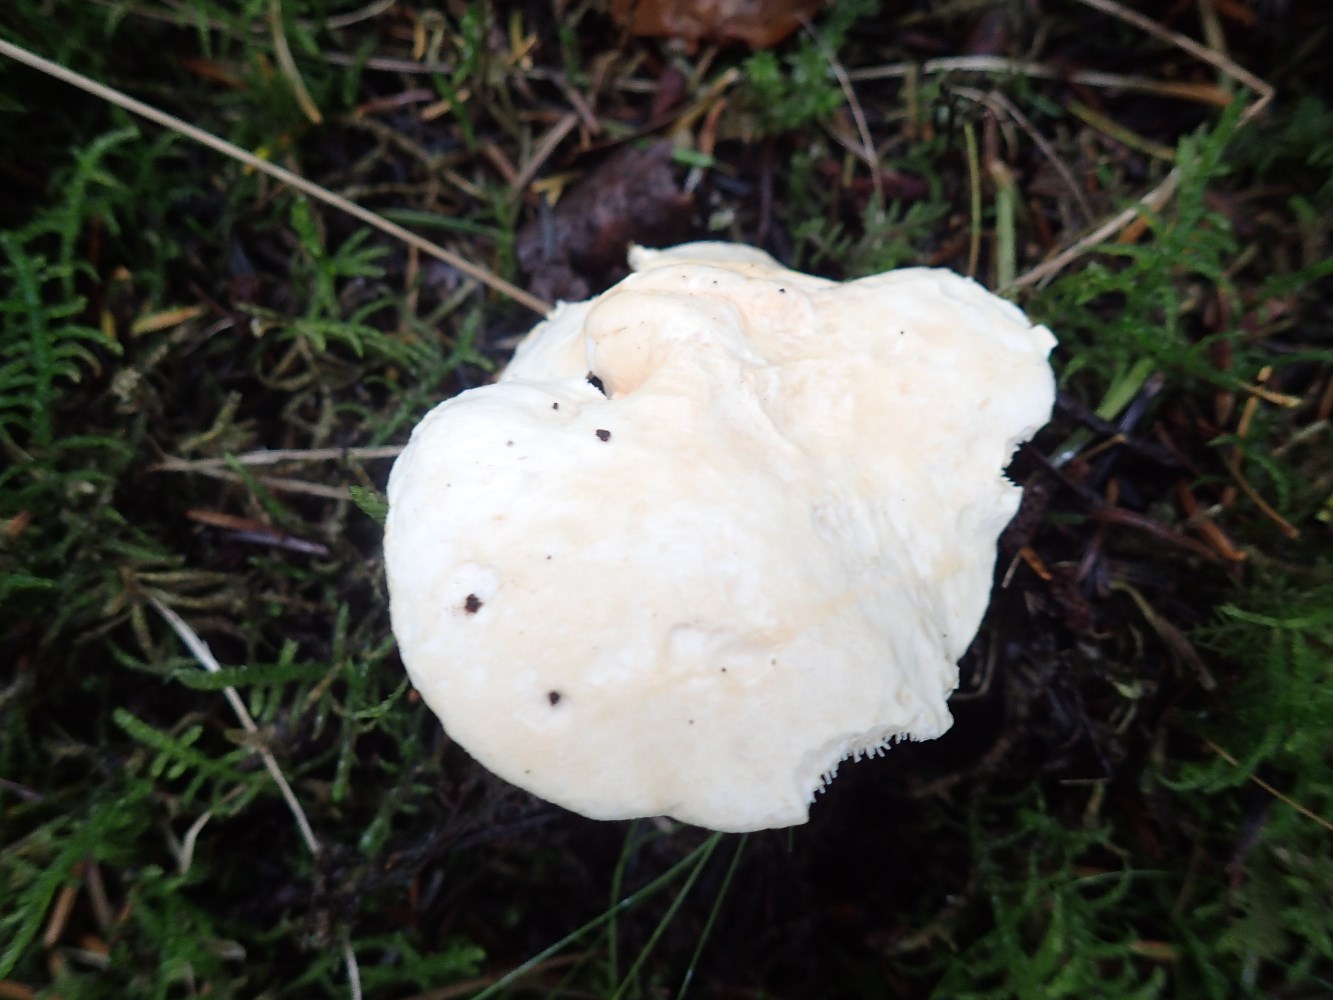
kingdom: Fungi
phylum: Basidiomycota
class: Agaricomycetes
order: Cantharellales
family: Hydnaceae
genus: Hydnum
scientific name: Hydnum repandum
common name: almindelig pigsvamp
